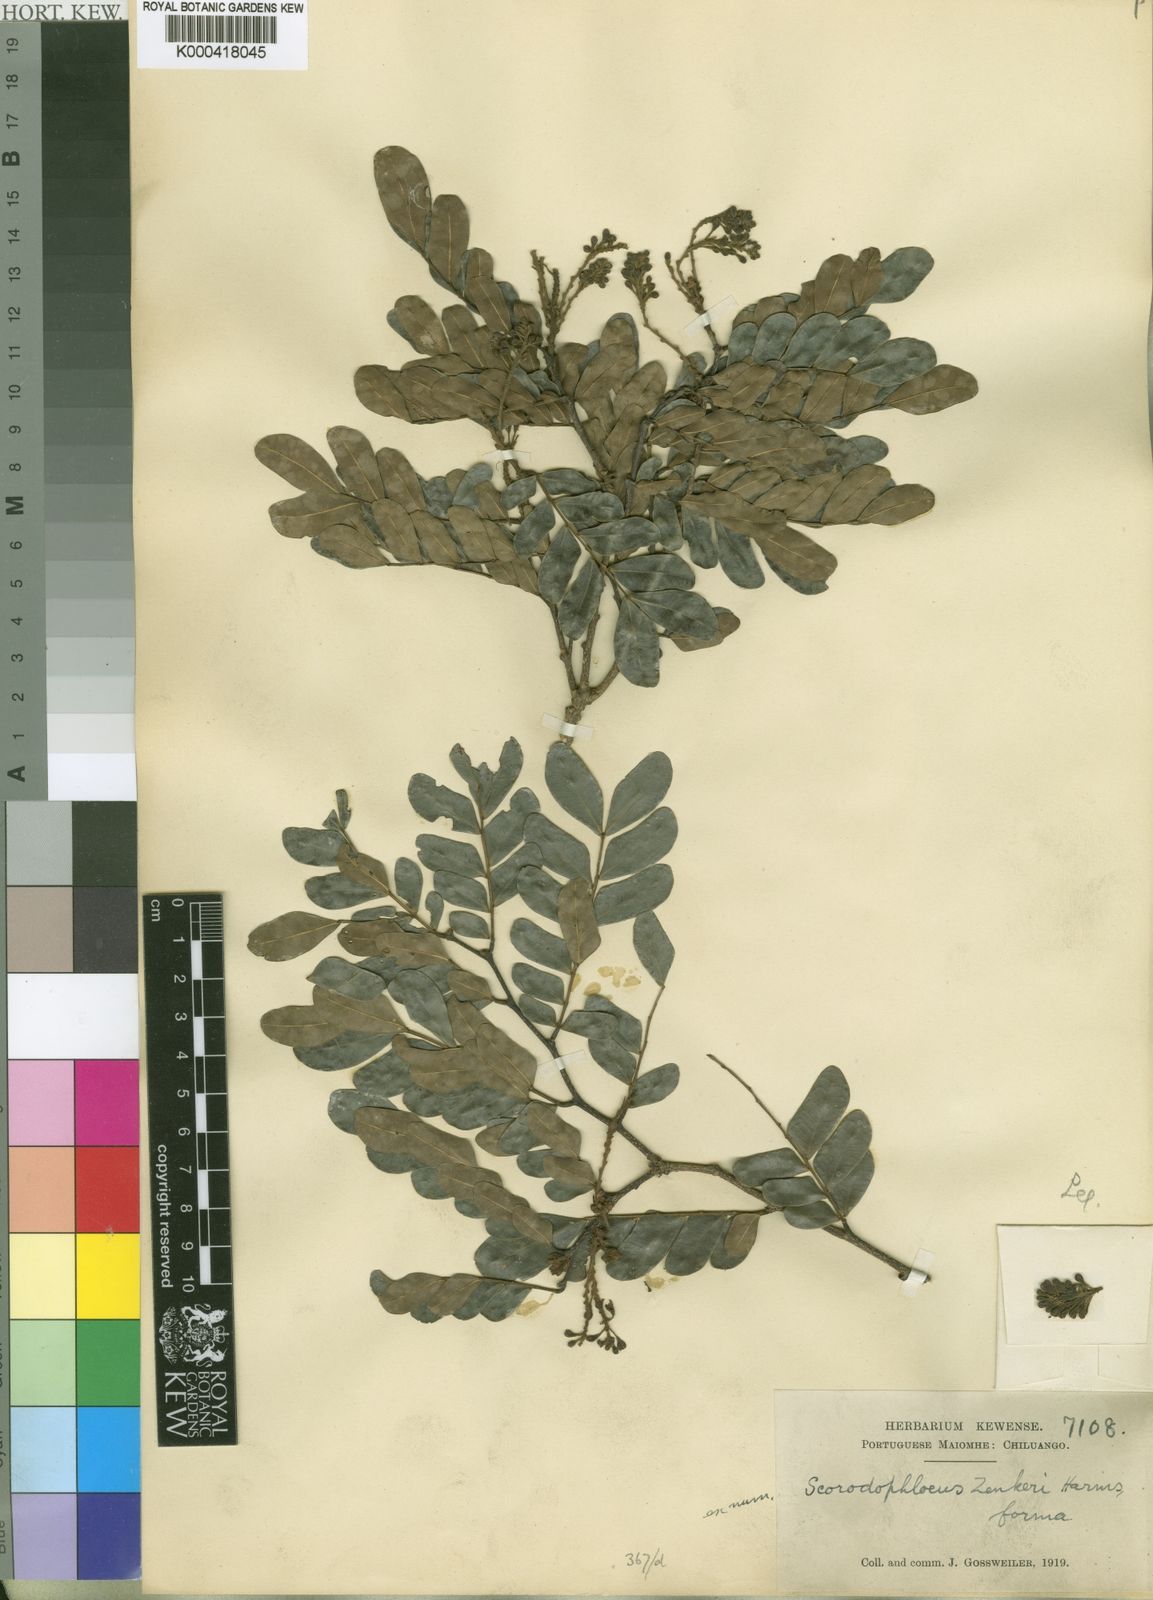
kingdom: Plantae
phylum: Tracheophyta
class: Magnoliopsida
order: Fabales
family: Fabaceae
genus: Scorodophloeus
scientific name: Scorodophloeus zenkeri
